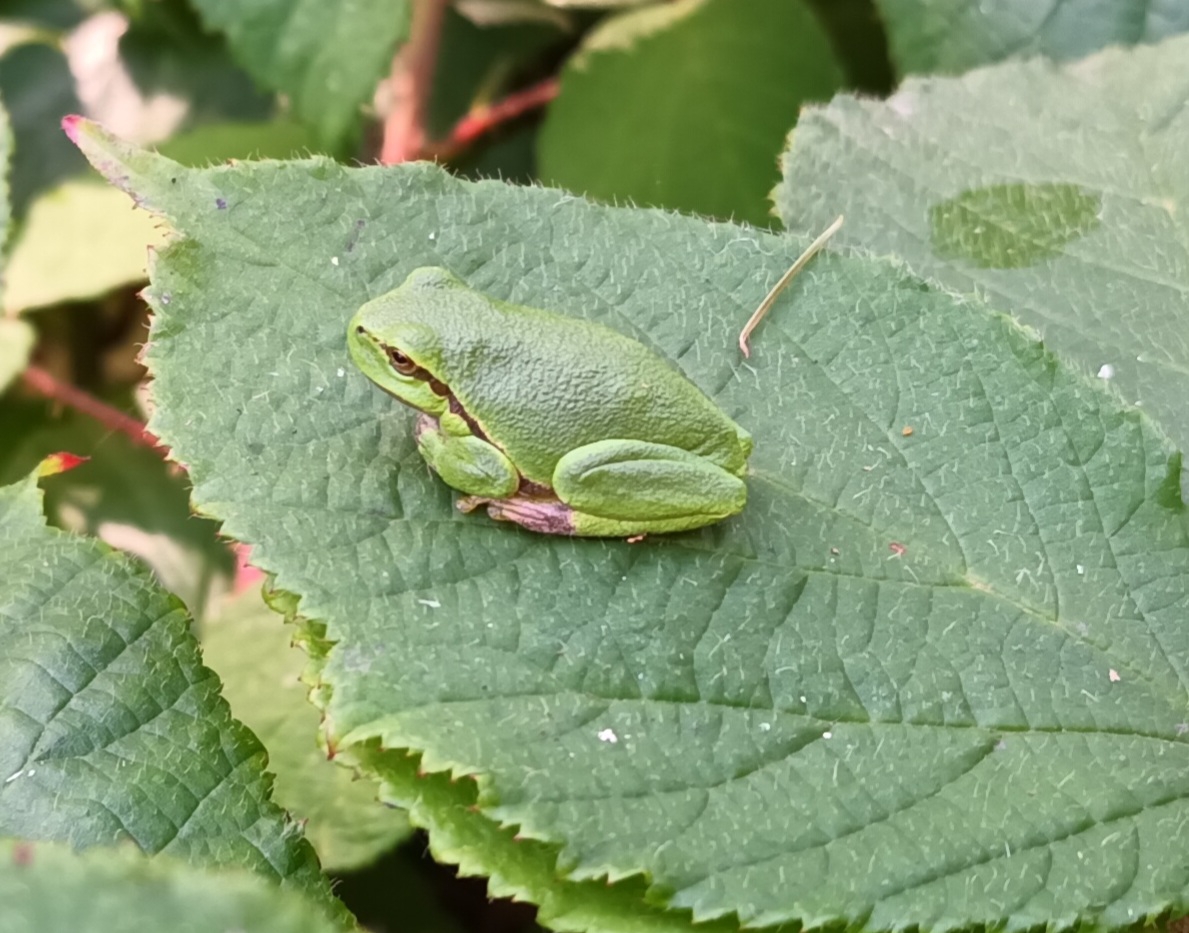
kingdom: Animalia
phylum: Chordata
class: Amphibia
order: Anura
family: Hylidae
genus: Hyla
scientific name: Hyla arborea
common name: Løvfrø
